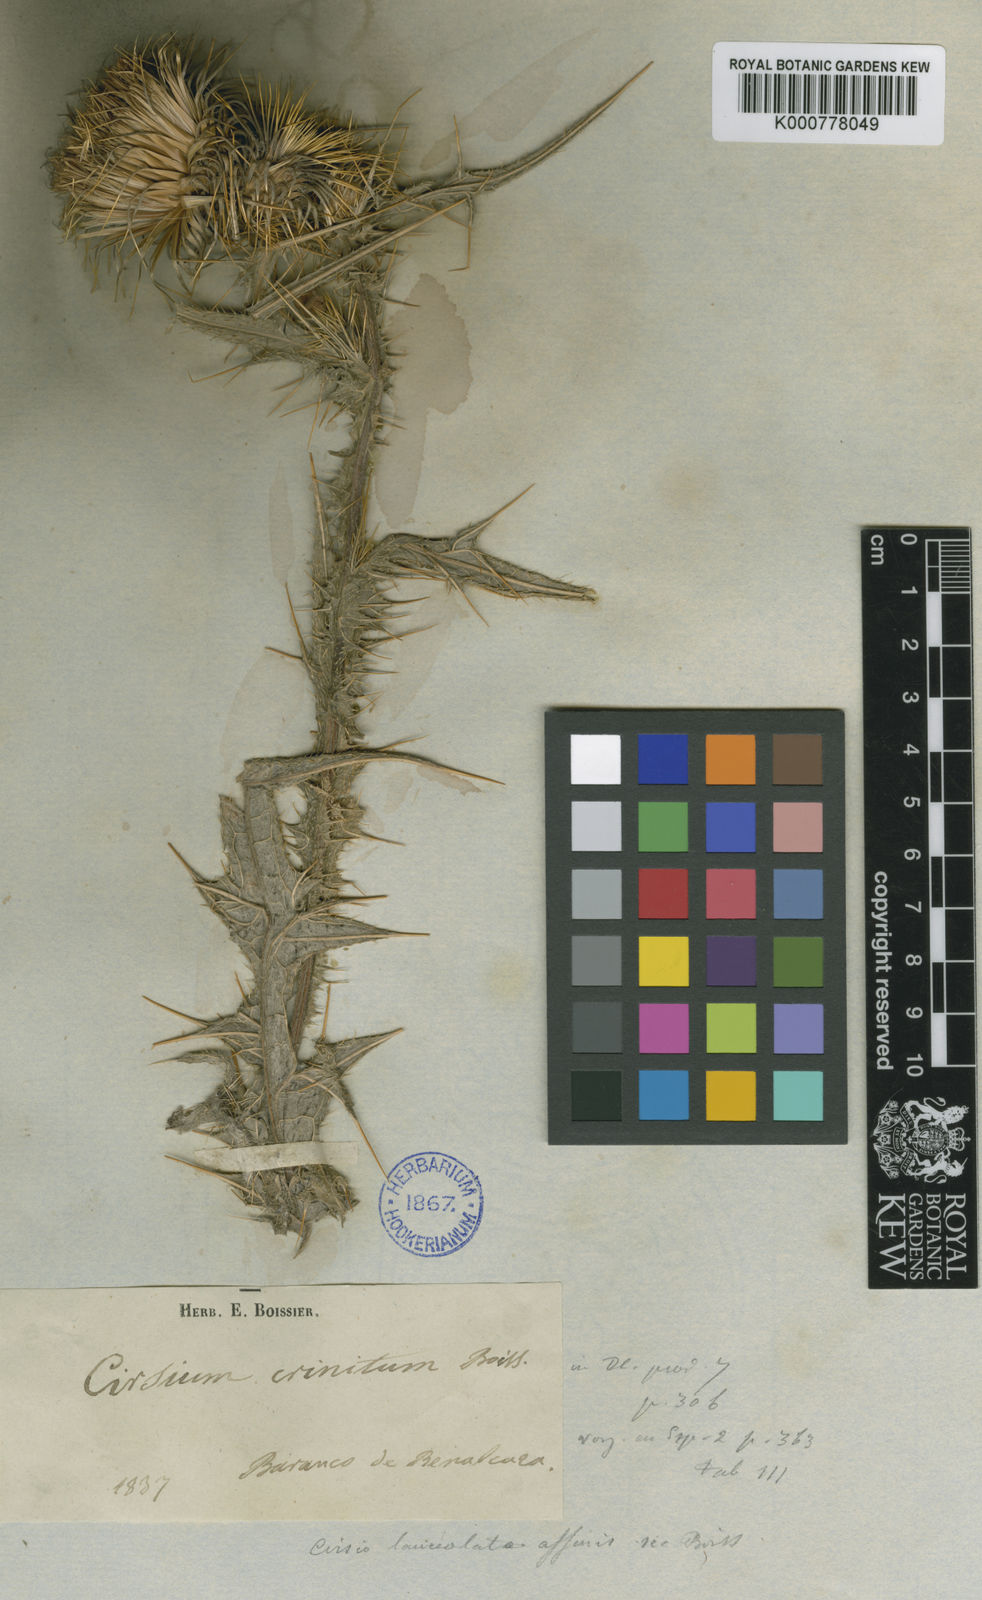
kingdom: Plantae
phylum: Tracheophyta
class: Magnoliopsida
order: Asterales
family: Asteraceae
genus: Cirsium
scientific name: Cirsium
